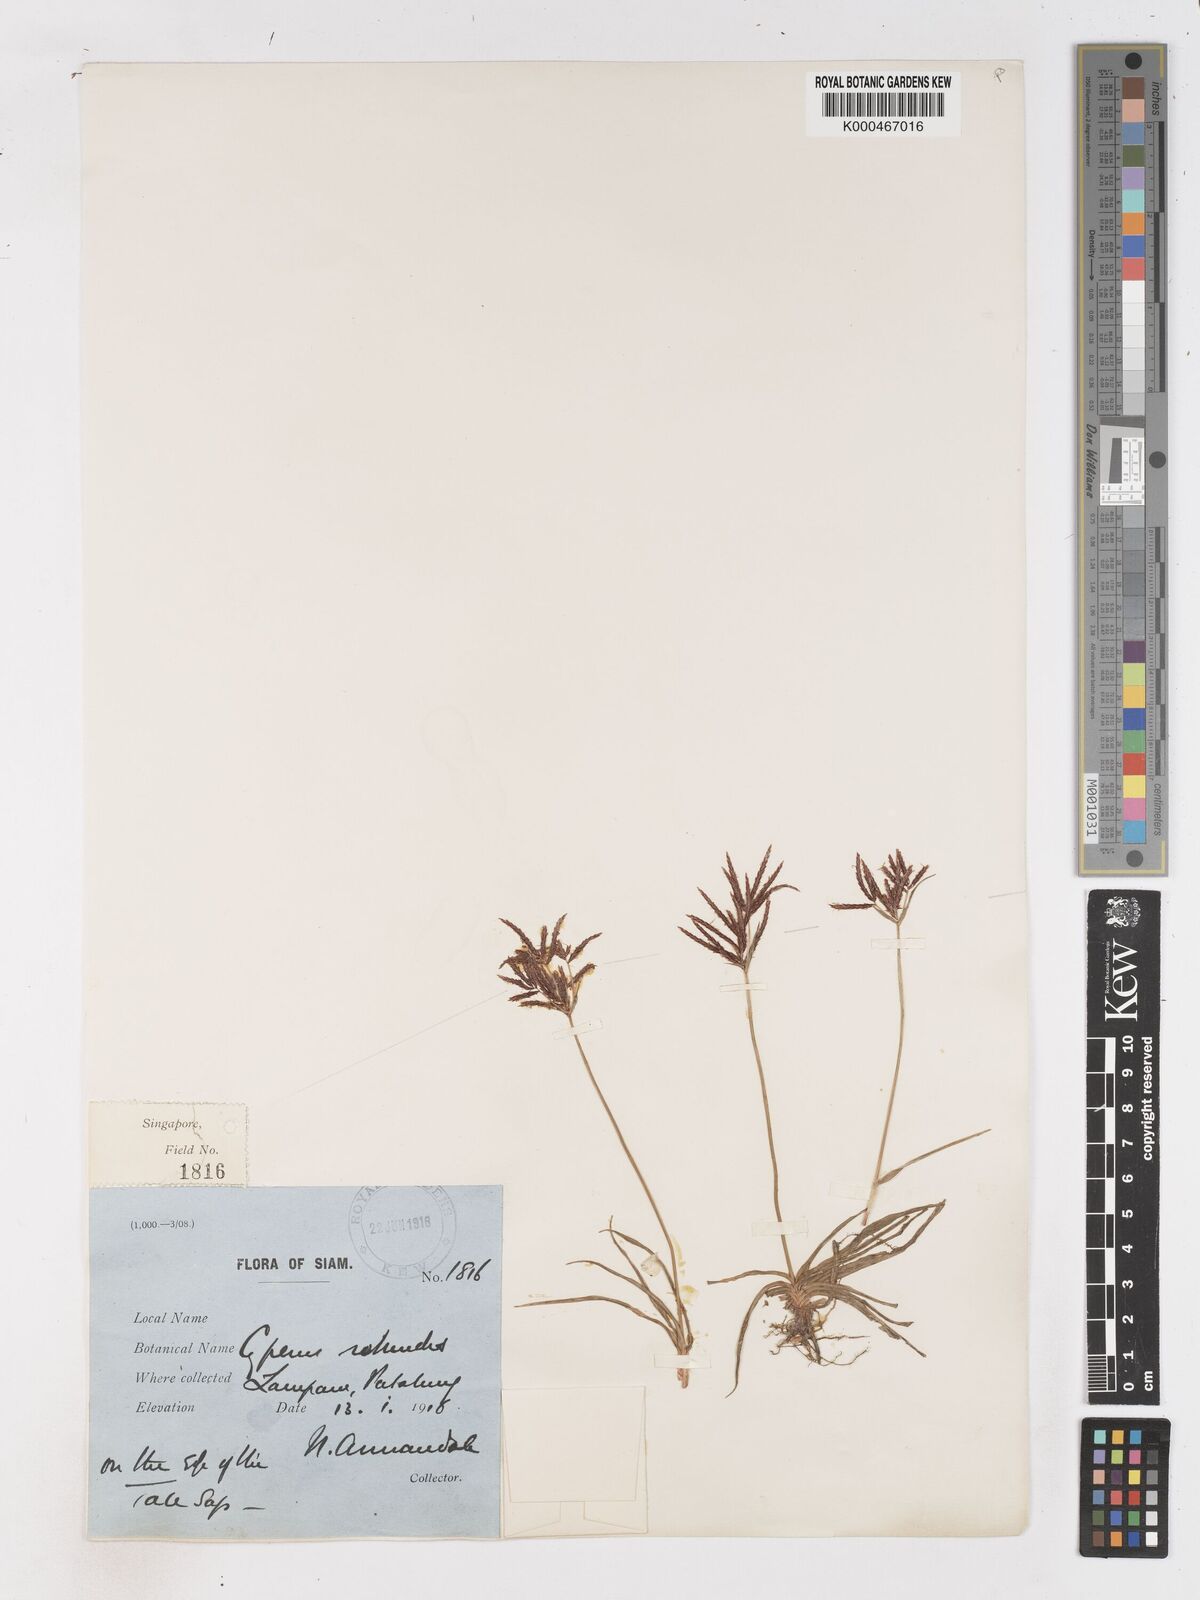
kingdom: Plantae
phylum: Tracheophyta
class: Liliopsida
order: Poales
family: Cyperaceae
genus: Cyperus
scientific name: Cyperus rotundus
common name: Nutgrass
